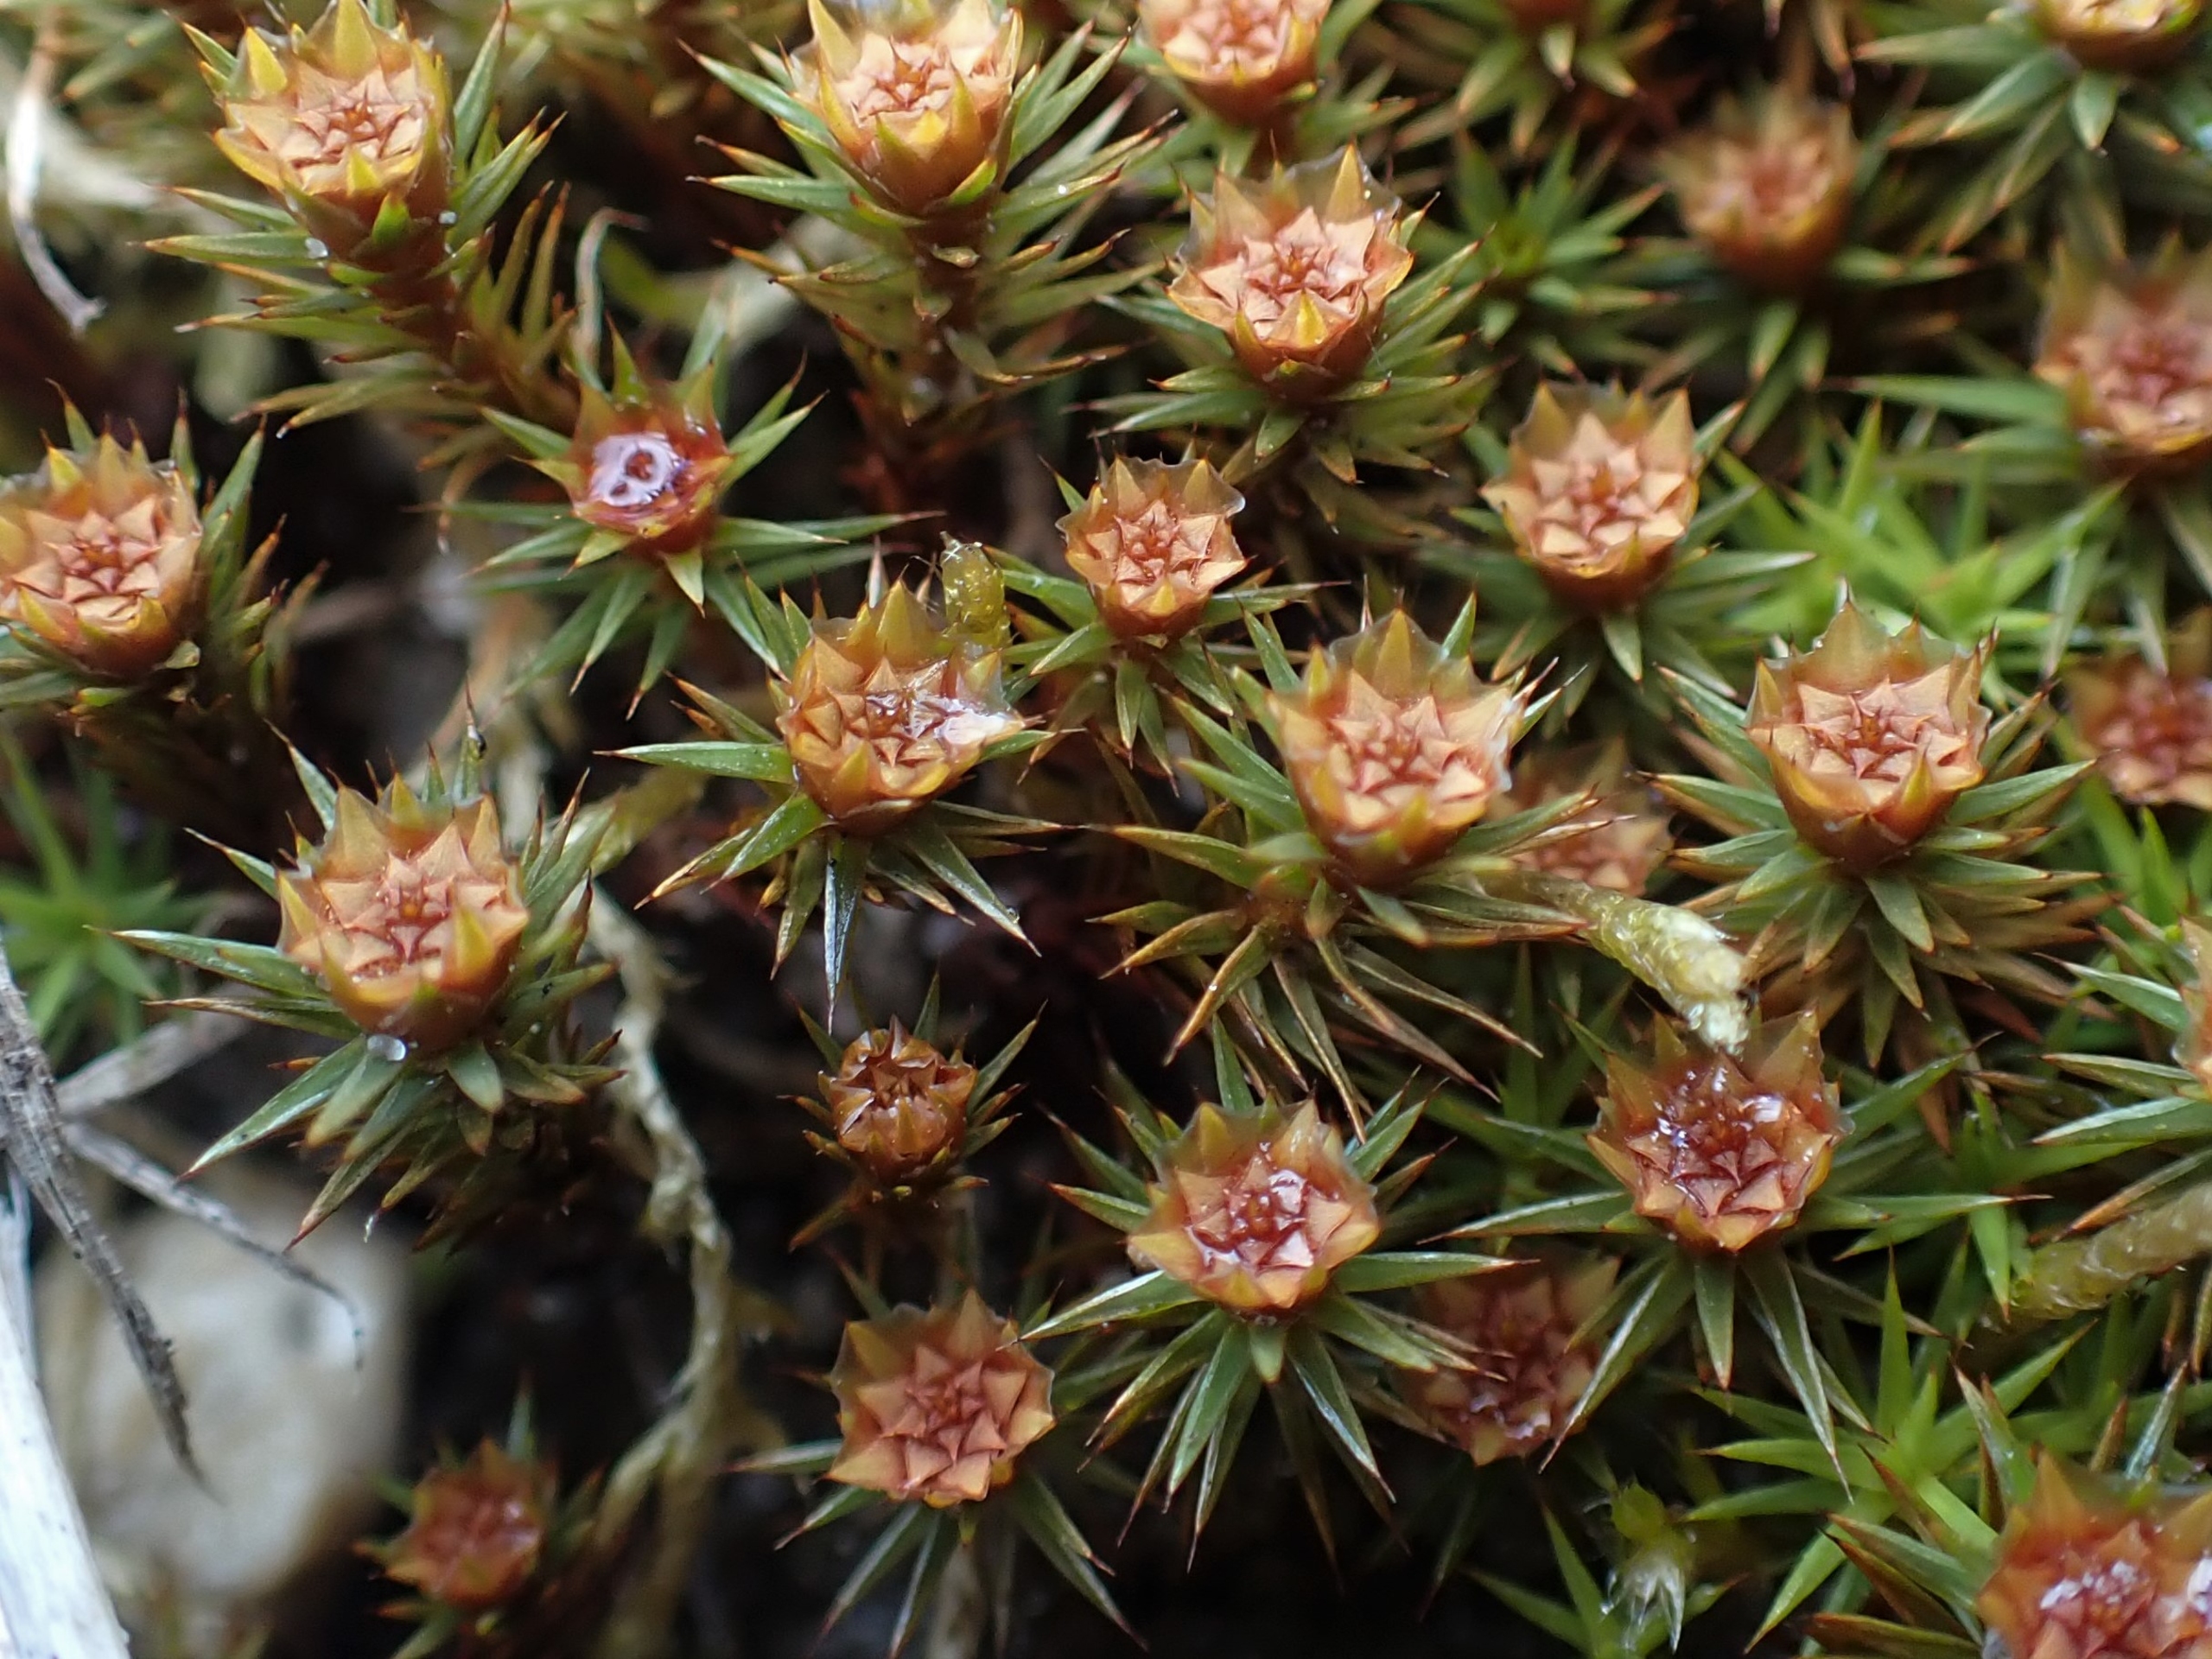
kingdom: Plantae
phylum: Bryophyta
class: Polytrichopsida
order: Polytrichales
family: Polytrichaceae
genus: Polytrichum
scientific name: Polytrichum juniperinum
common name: Ene-jomfruhår
